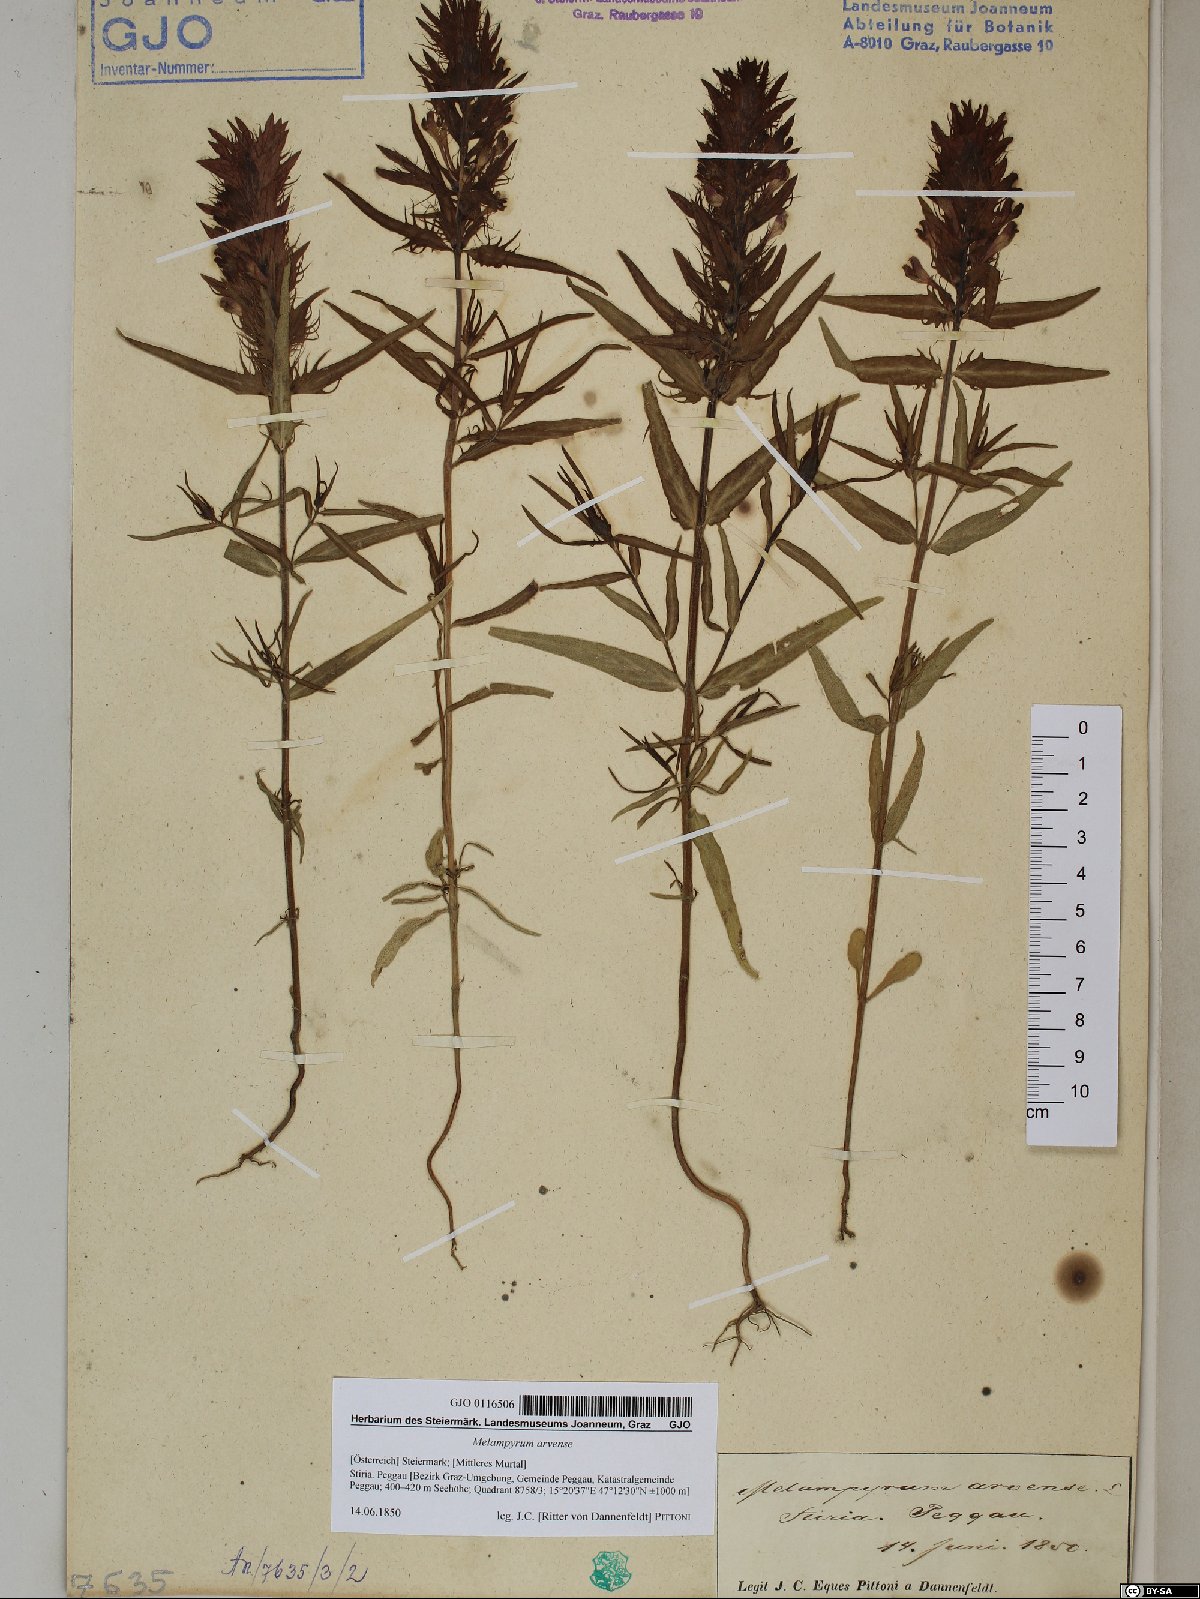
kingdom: Plantae
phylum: Tracheophyta
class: Magnoliopsida
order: Lamiales
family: Orobanchaceae
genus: Melampyrum
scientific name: Melampyrum arvense
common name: Field cow-wheat
